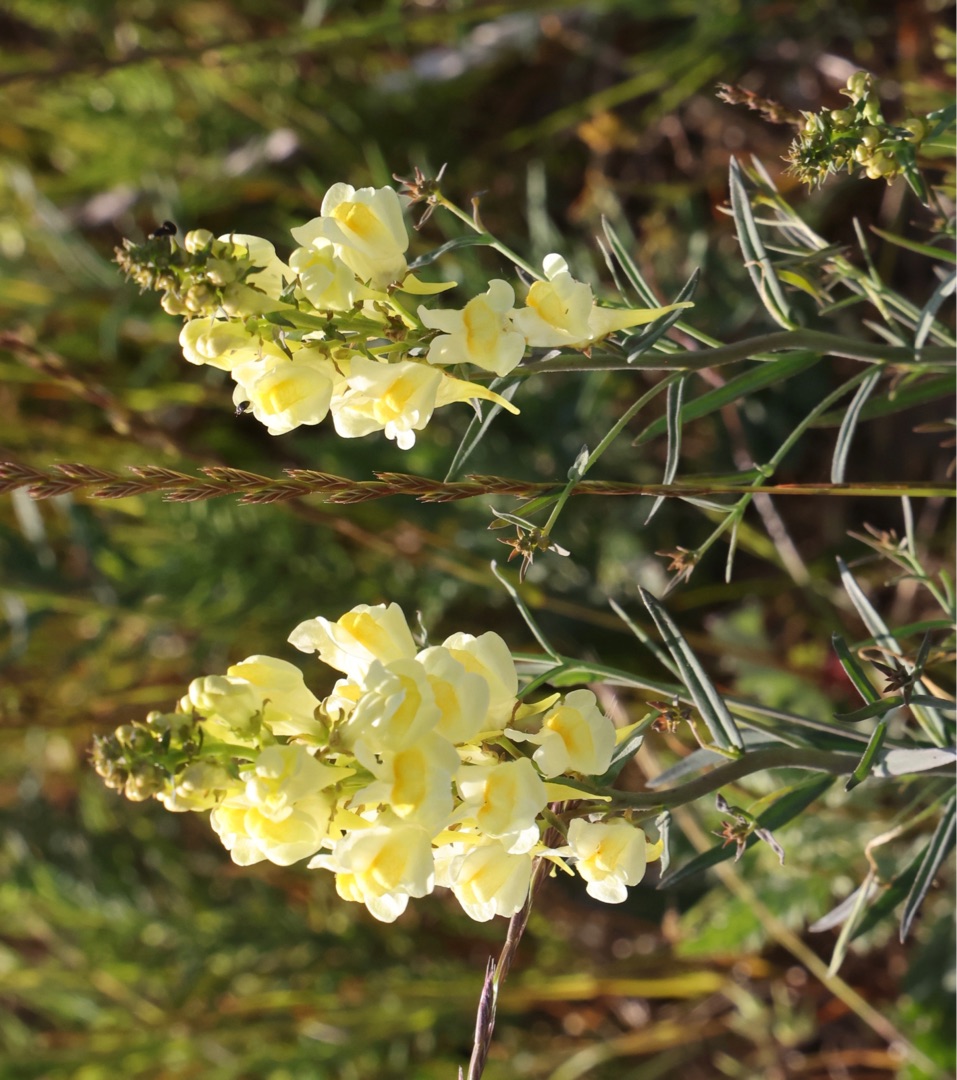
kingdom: Plantae
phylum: Tracheophyta
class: Magnoliopsida
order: Lamiales
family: Plantaginaceae
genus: Linaria
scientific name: Linaria vulgaris
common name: Almindelig torskemund
